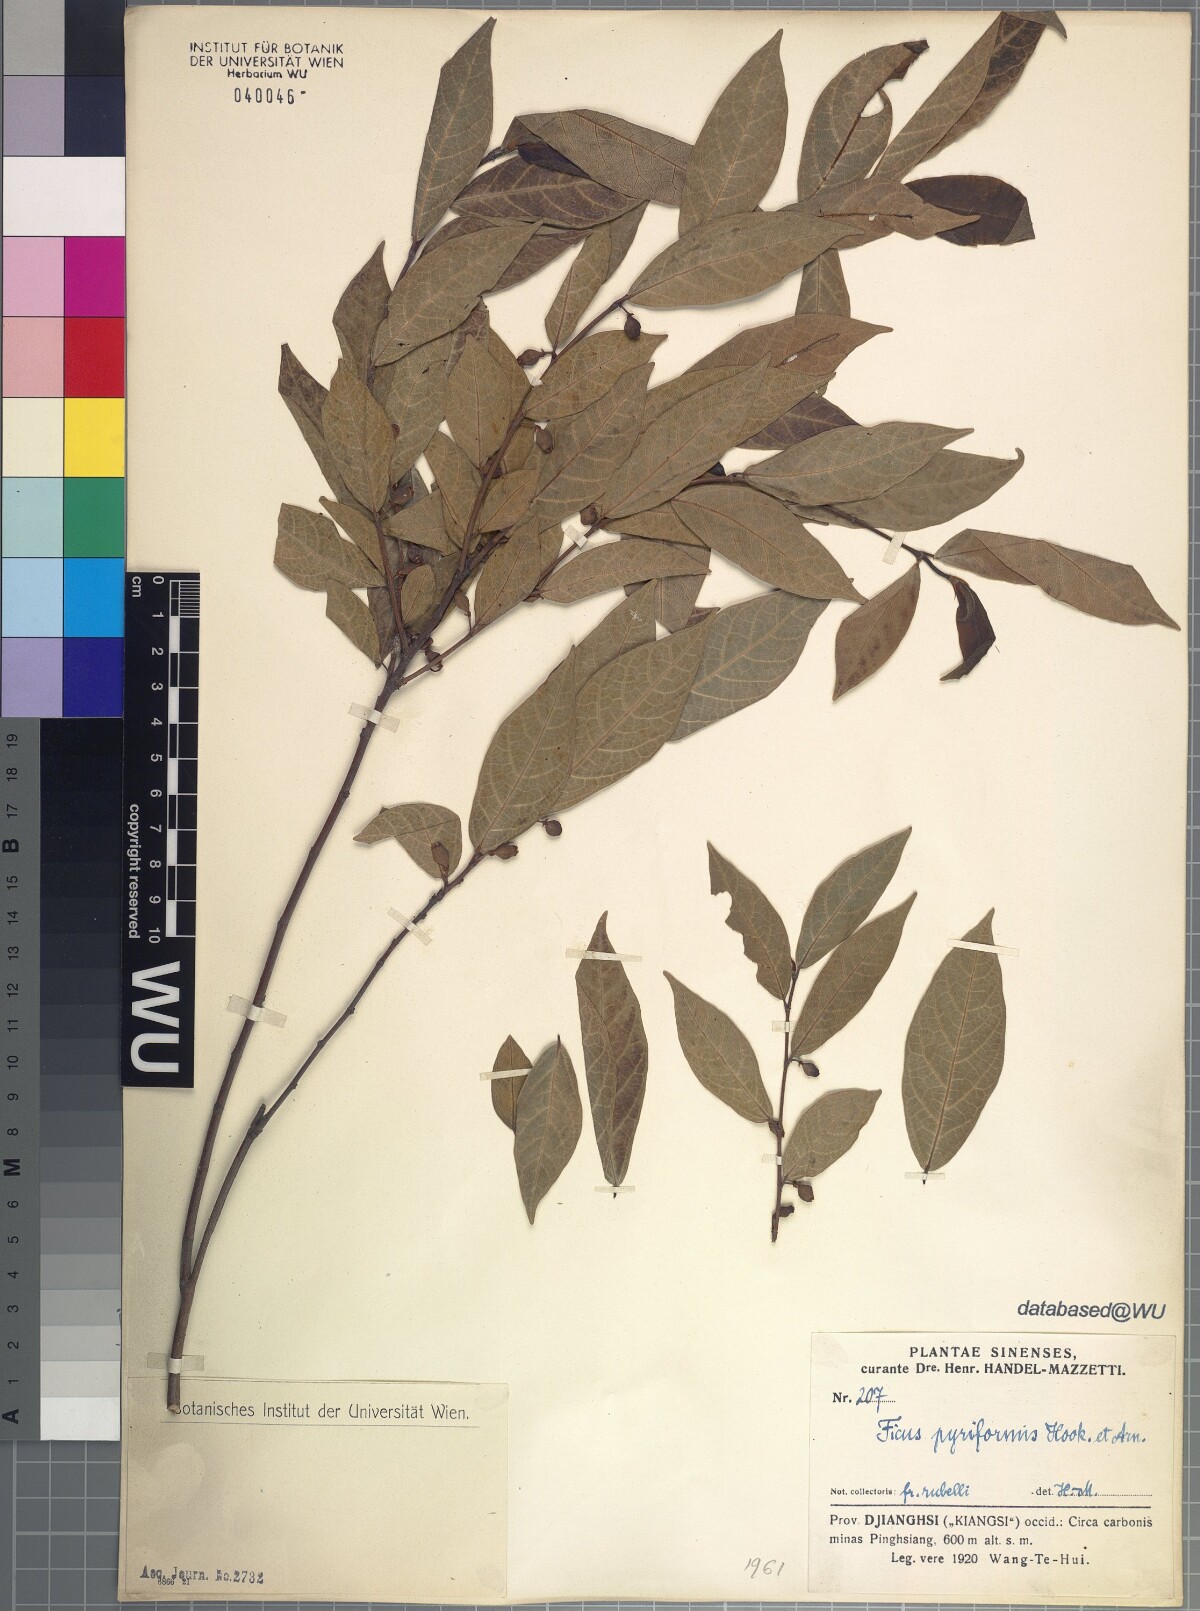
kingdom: Plantae
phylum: Tracheophyta
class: Magnoliopsida
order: Rosales
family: Moraceae
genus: Ficus
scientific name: Ficus pyriformis
